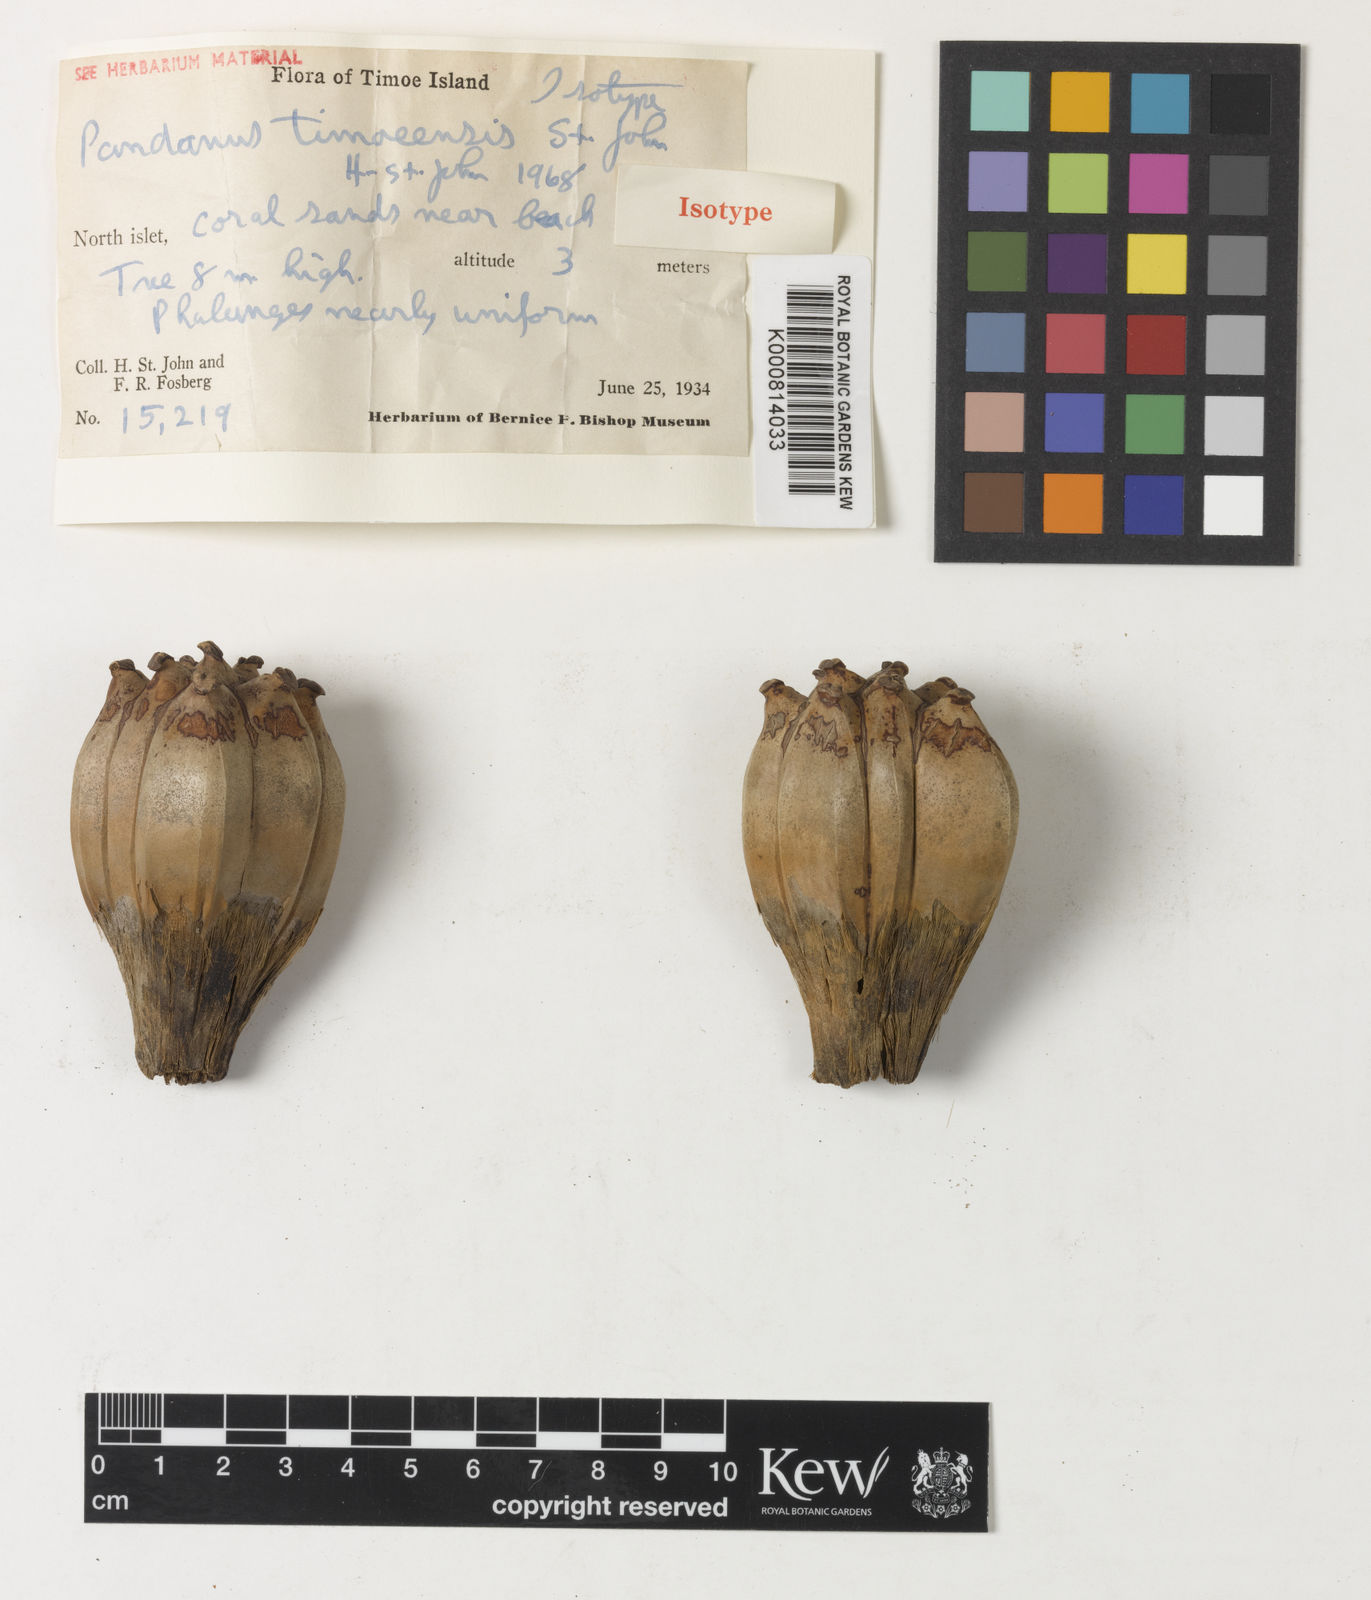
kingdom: Plantae
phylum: Tracheophyta
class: Liliopsida
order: Pandanales
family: Pandanaceae
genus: Pandanus
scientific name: Pandanus tectorius
